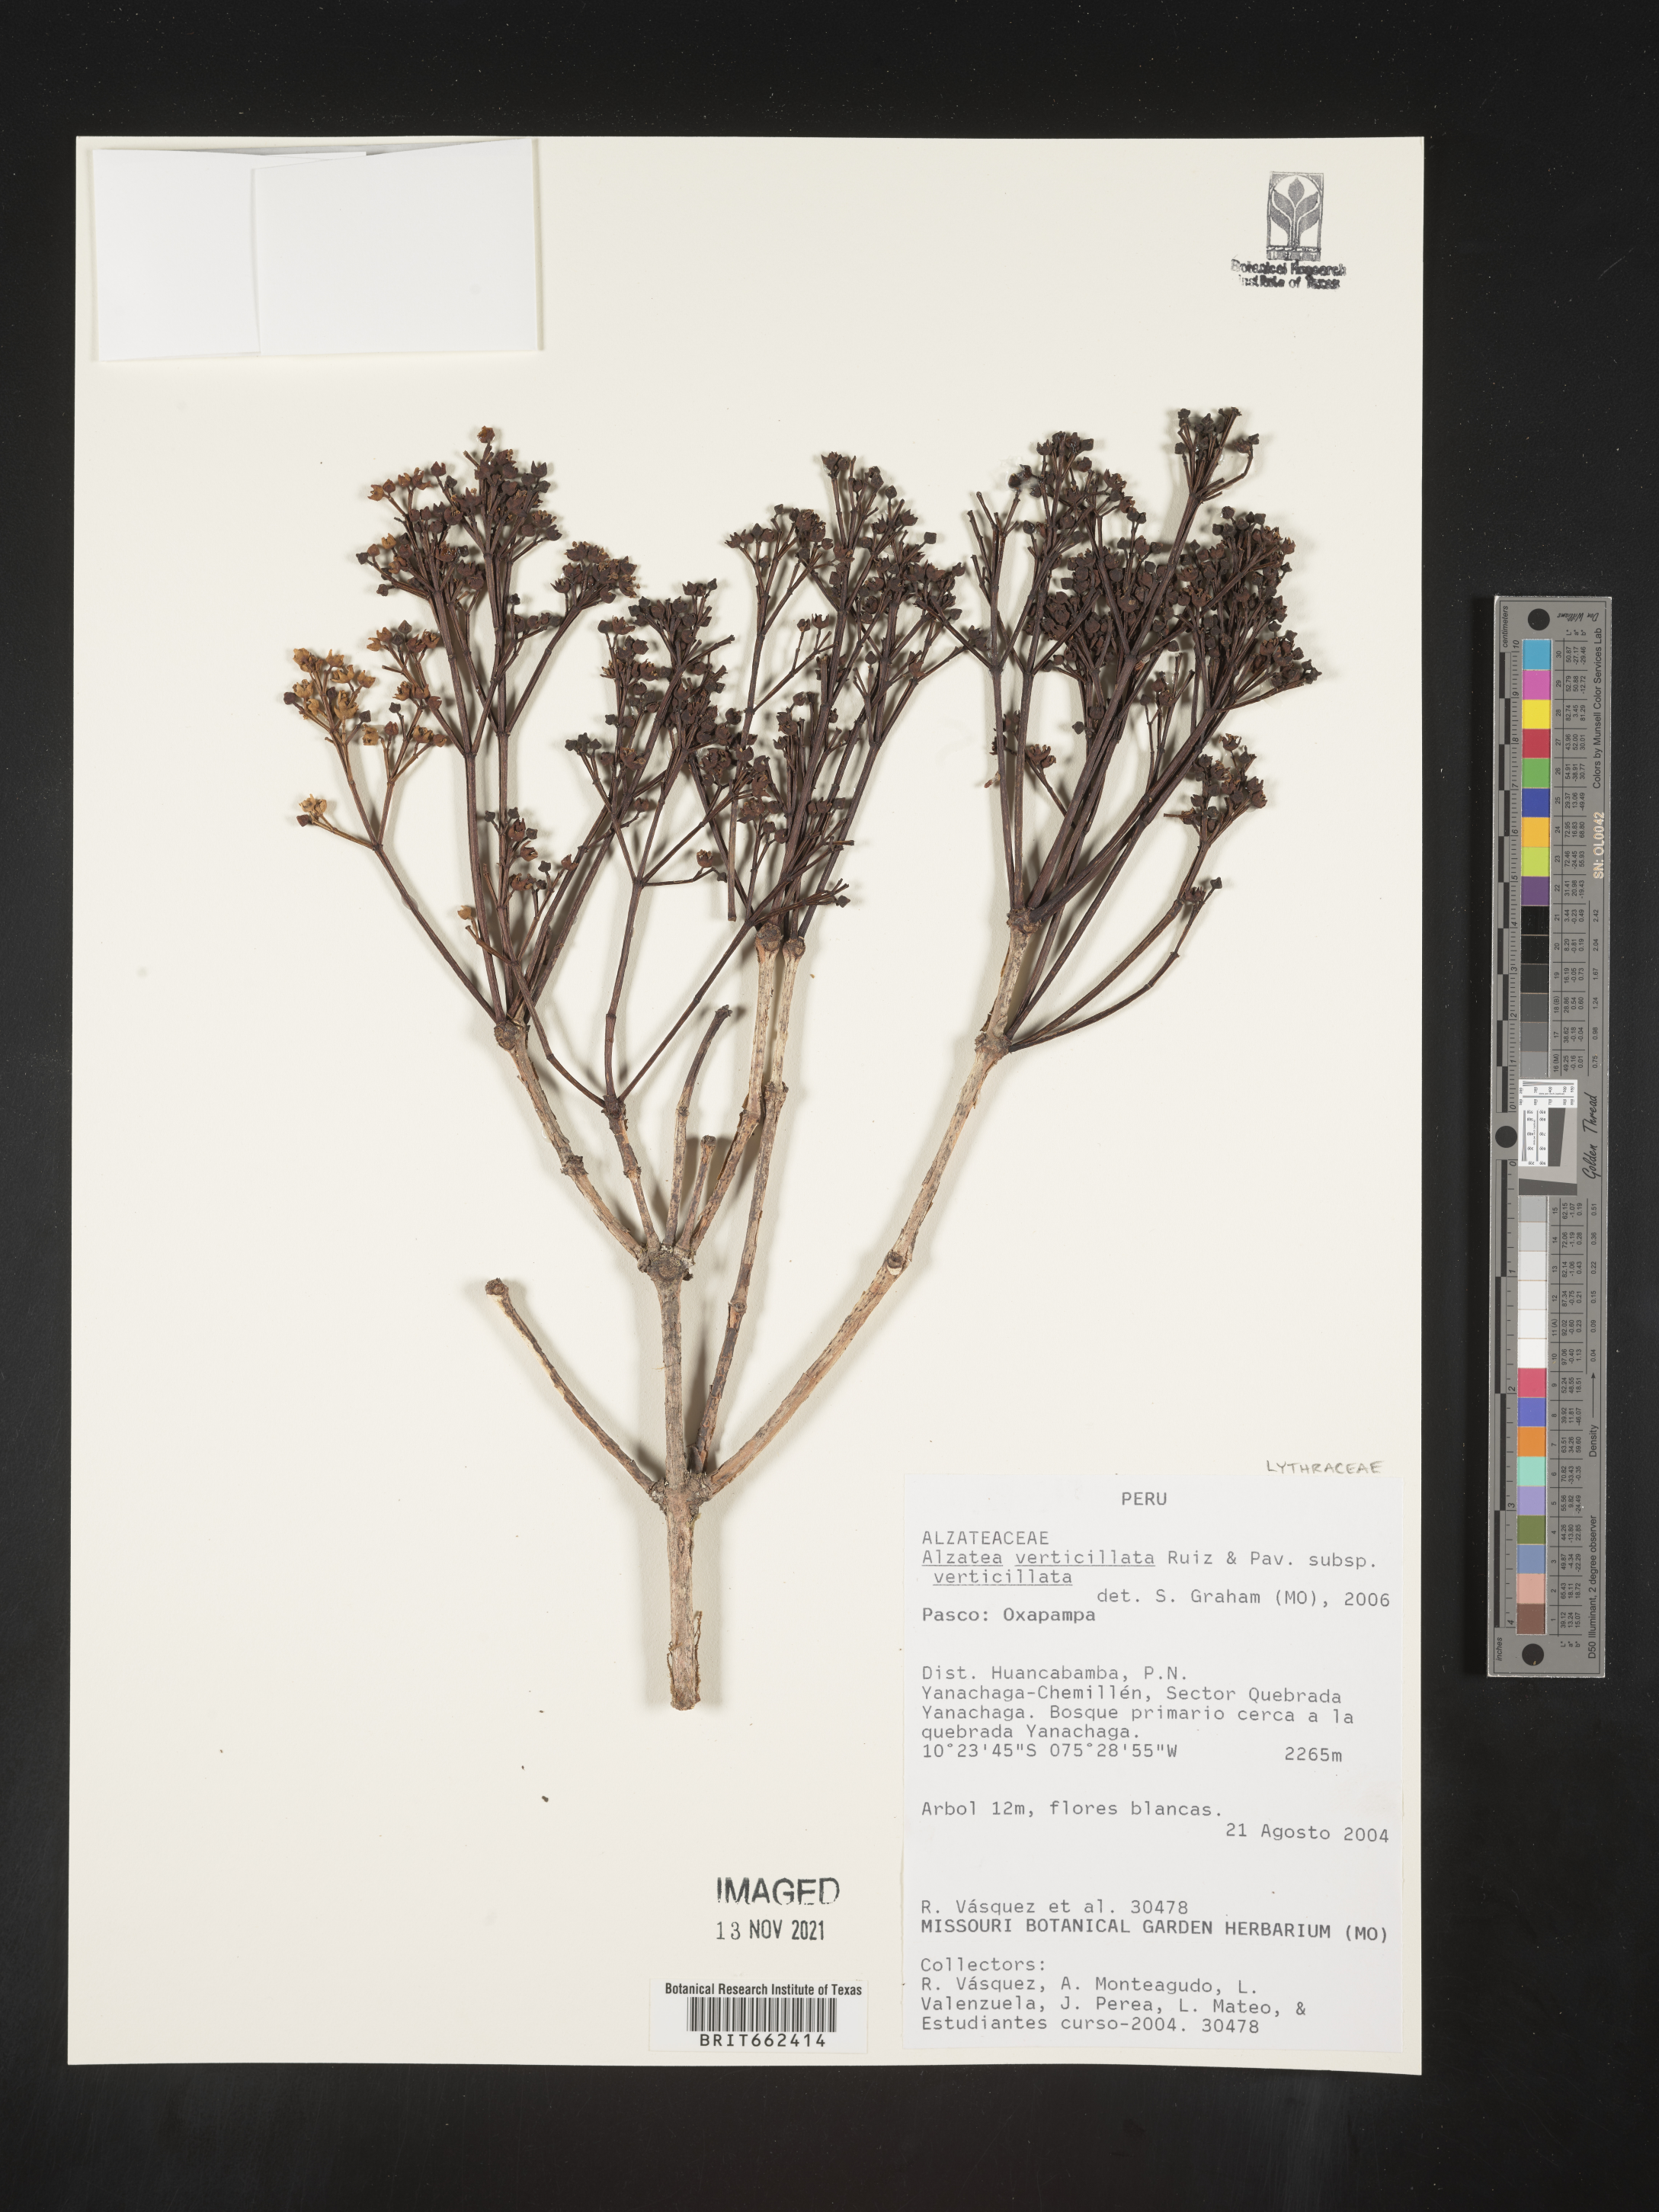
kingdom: Plantae
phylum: Tracheophyta
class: Magnoliopsida
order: Myrtales
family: Alzateaceae
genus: Alzatea
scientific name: Alzatea
